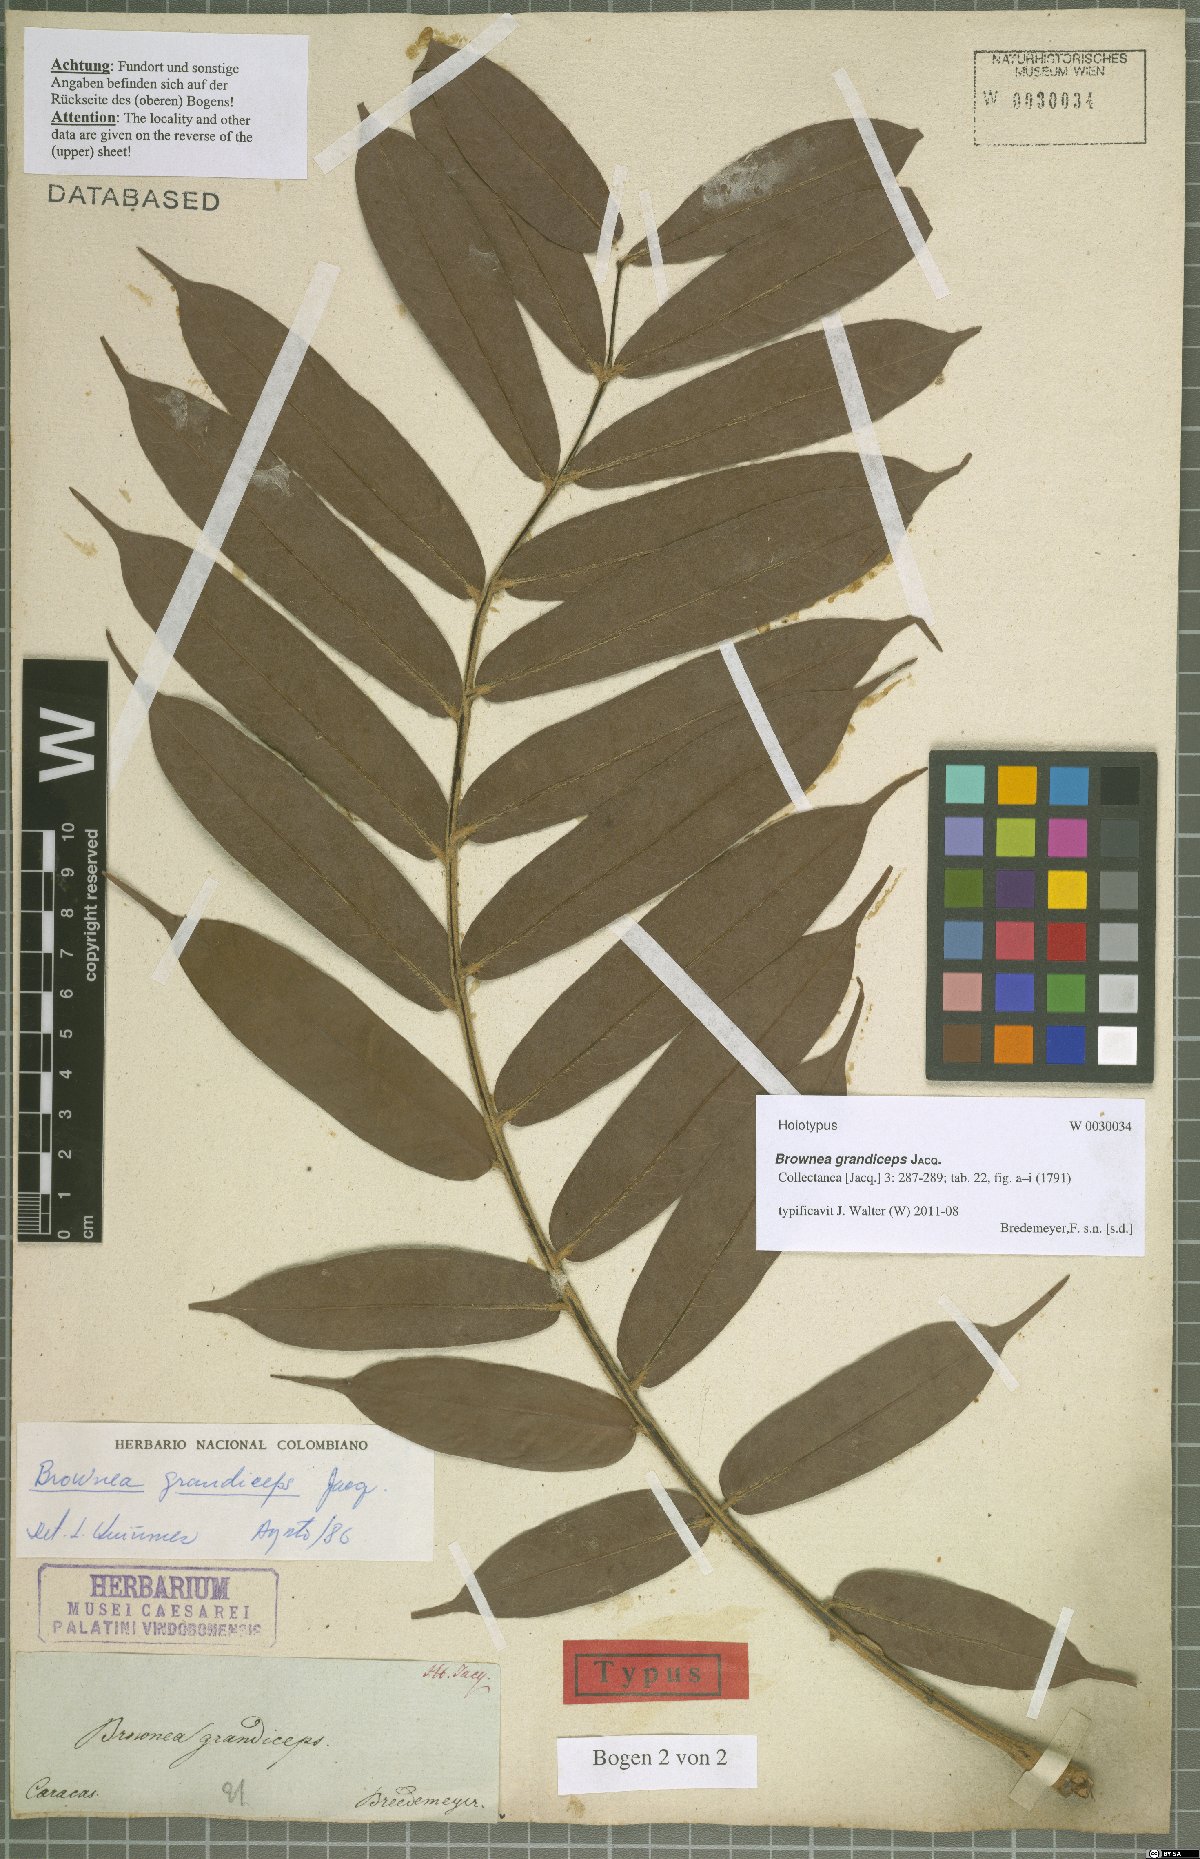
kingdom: Plantae
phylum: Tracheophyta
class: Magnoliopsida
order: Fabales
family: Fabaceae
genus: Brownea
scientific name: Brownea grandiceps
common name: Rose-of-venezuela
